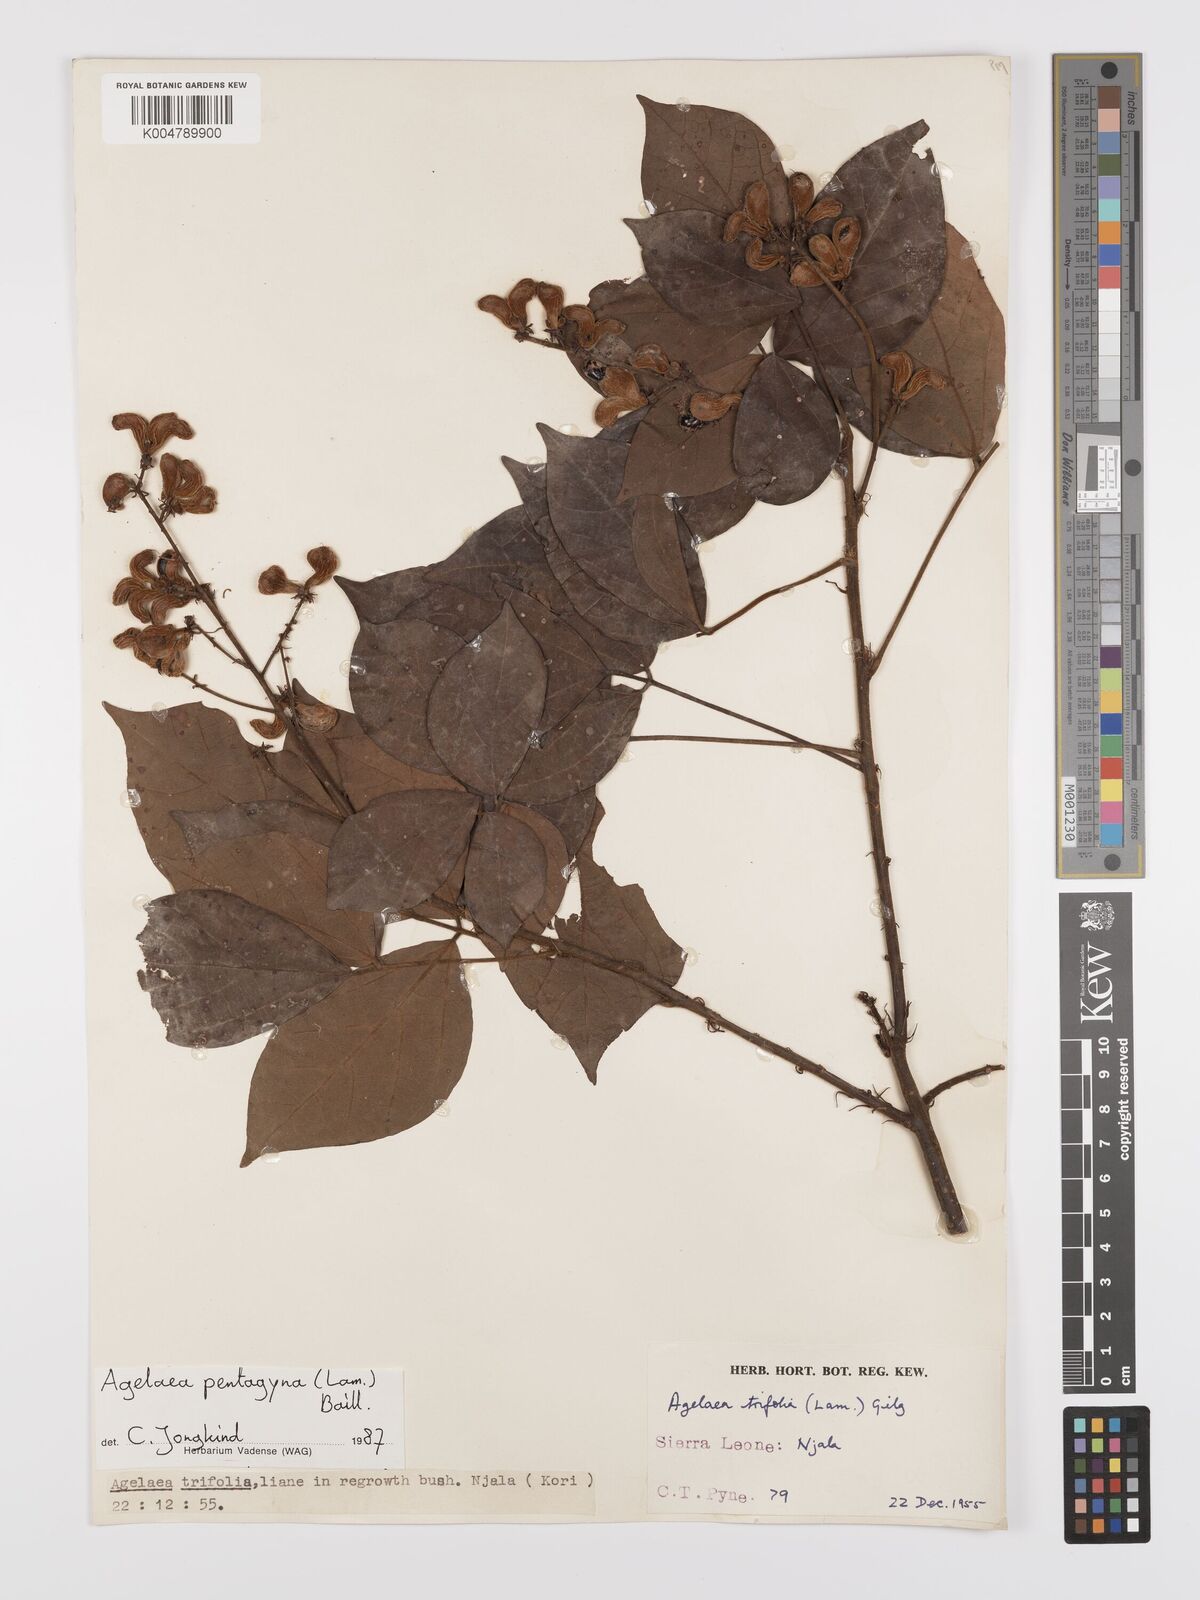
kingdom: Plantae
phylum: Tracheophyta
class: Magnoliopsida
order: Oxalidales
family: Connaraceae
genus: Agelaea
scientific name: Agelaea pentagyna
